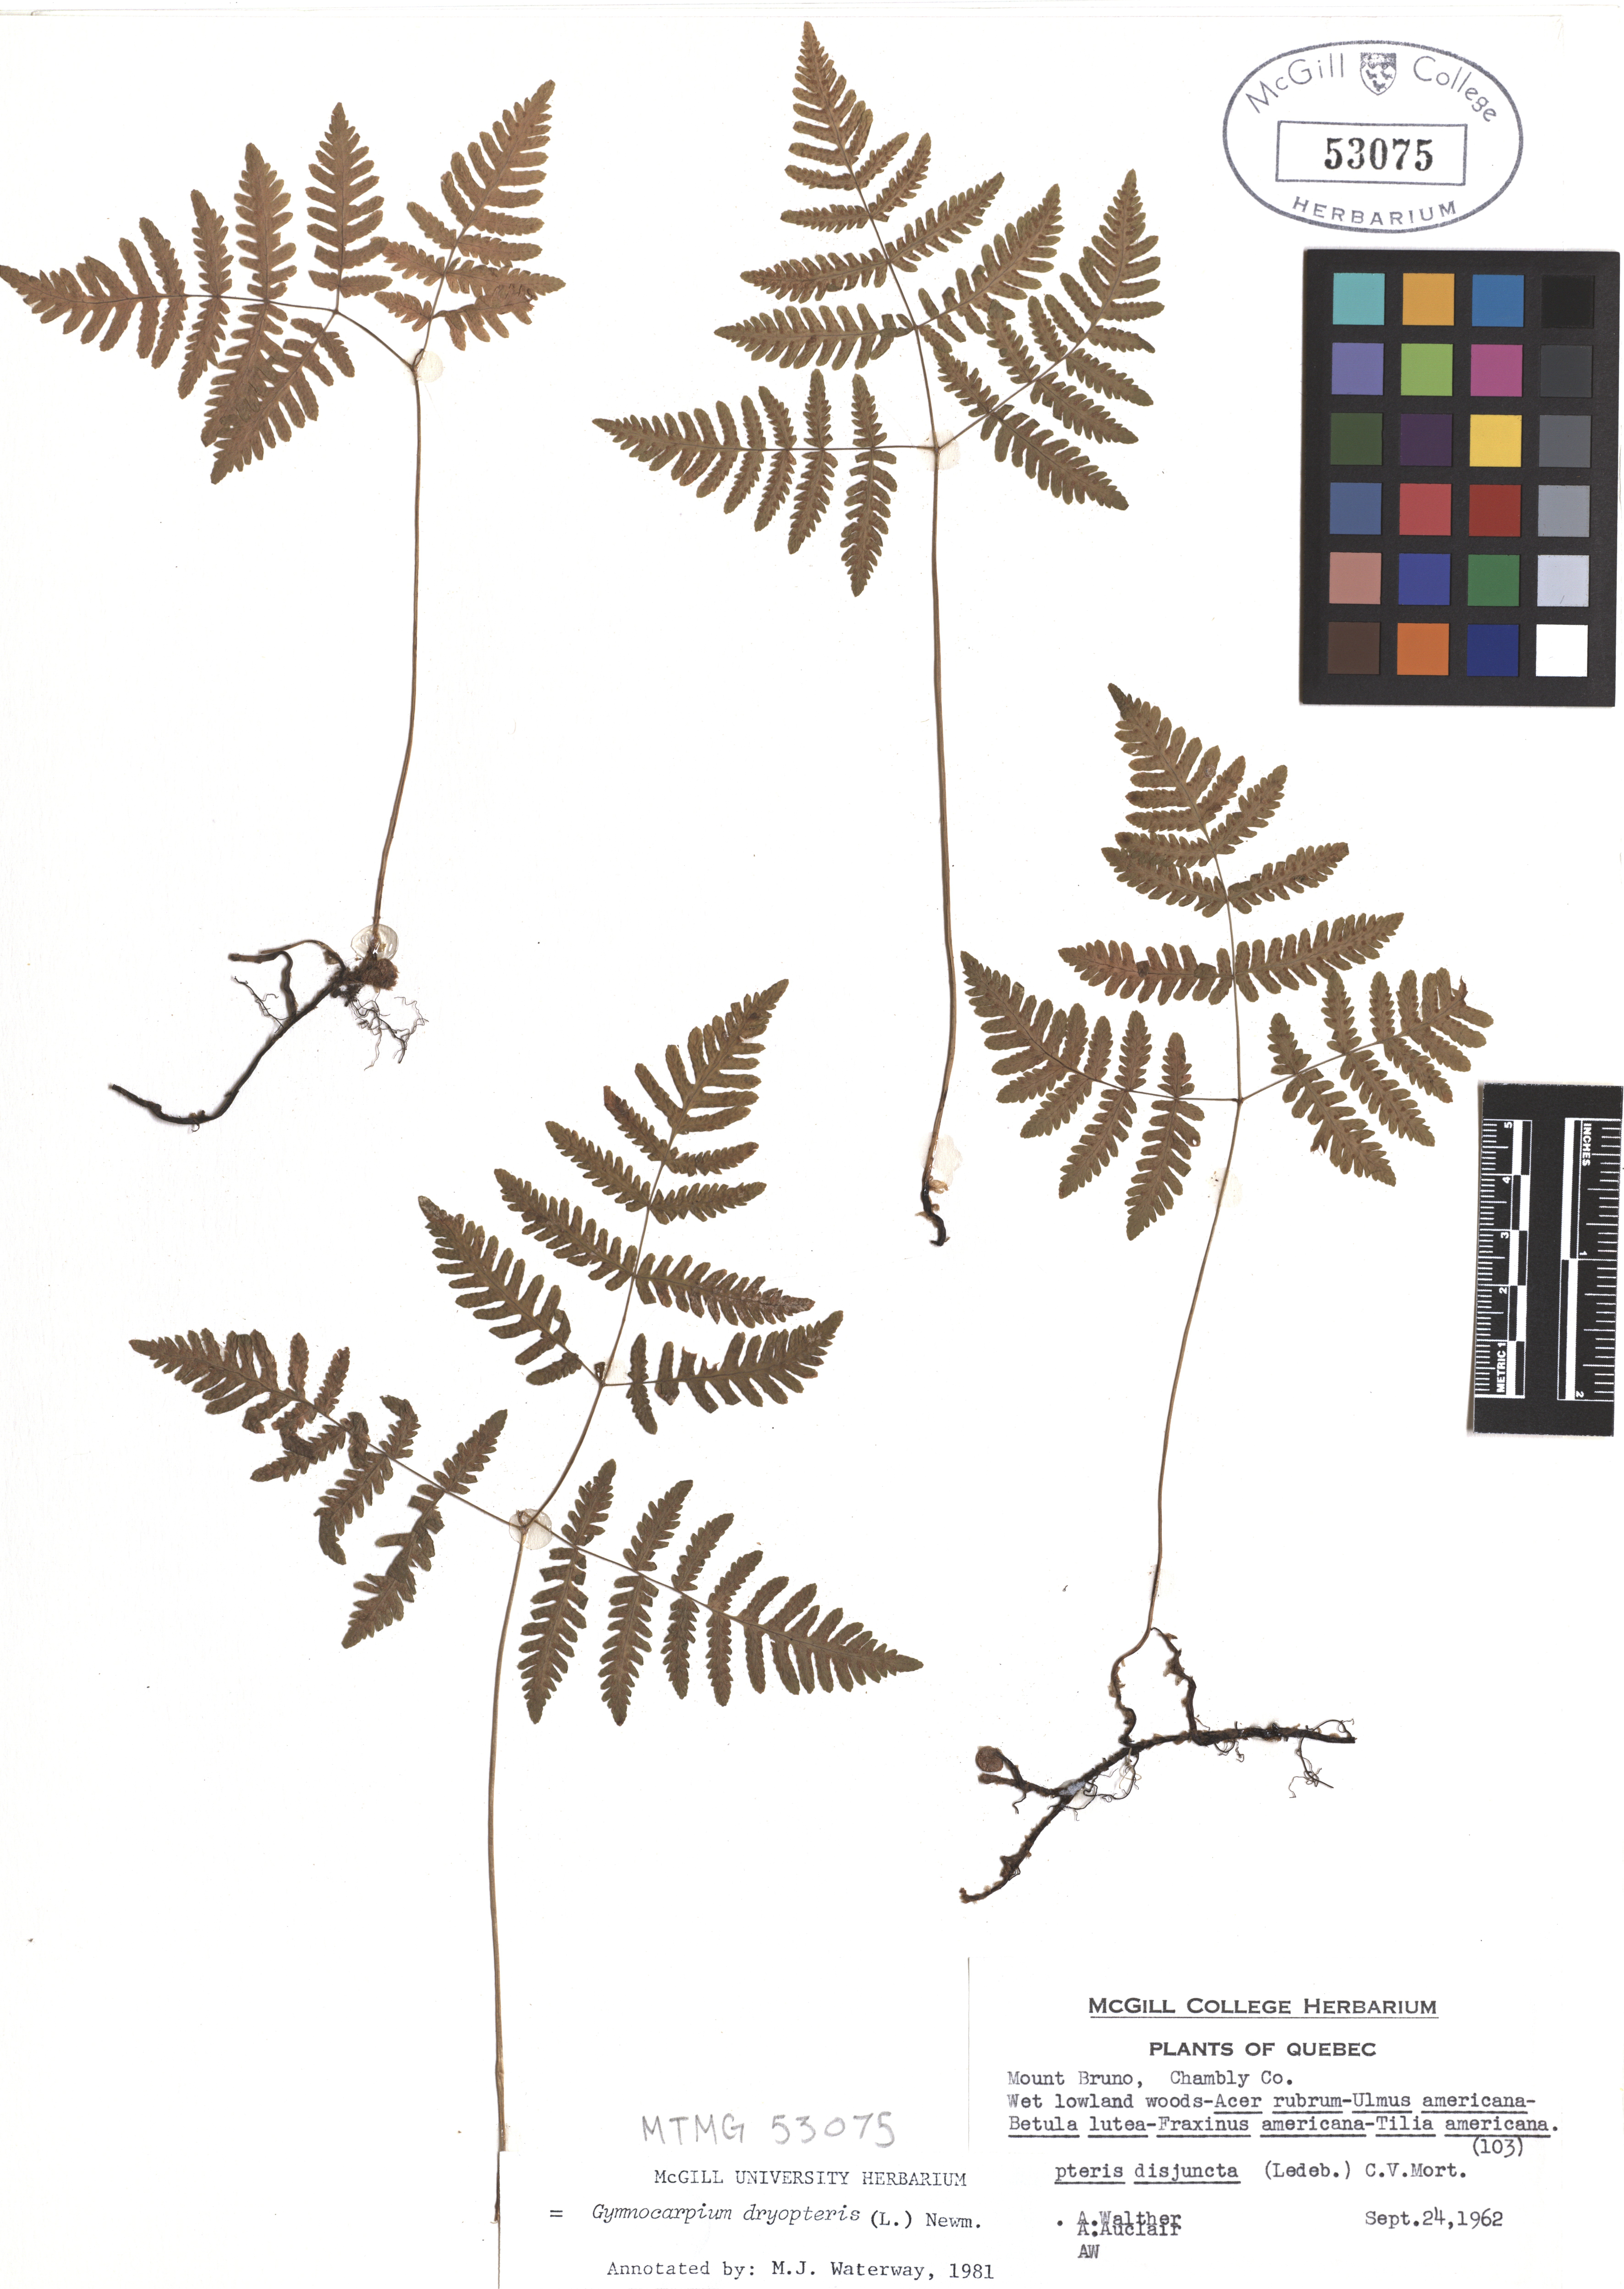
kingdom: Plantae
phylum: Tracheophyta
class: Polypodiopsida
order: Polypodiales
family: Cystopteridaceae
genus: Gymnocarpium
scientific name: Gymnocarpium dryopteris
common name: Oak fern
